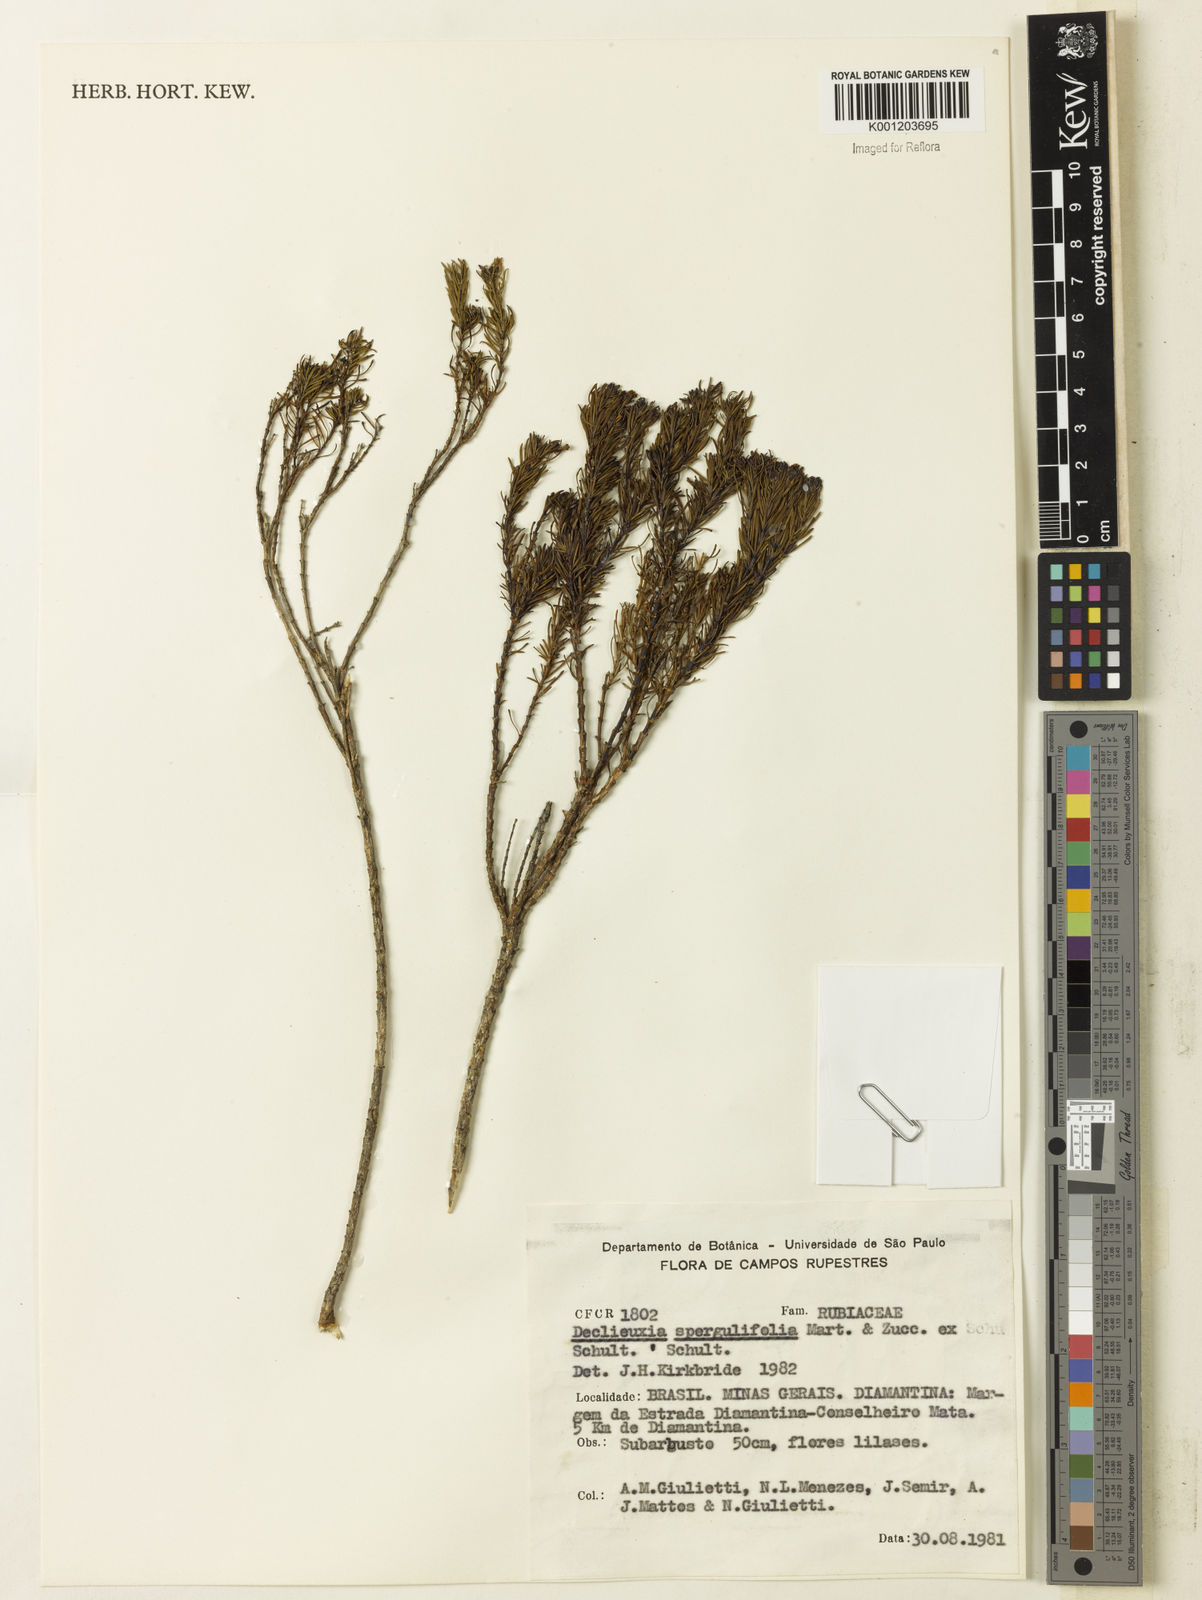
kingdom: Plantae
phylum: Tracheophyta
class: Magnoliopsida
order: Gentianales
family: Rubiaceae
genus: Declieuxia
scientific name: Declieuxia
